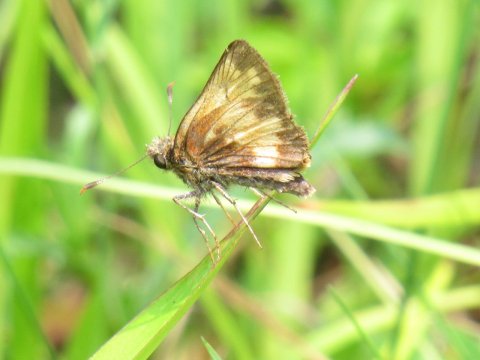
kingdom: Animalia
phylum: Arthropoda
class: Insecta
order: Lepidoptera
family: Hesperiidae
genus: Lon
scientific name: Lon hobomok
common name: Hobomok Skipper
